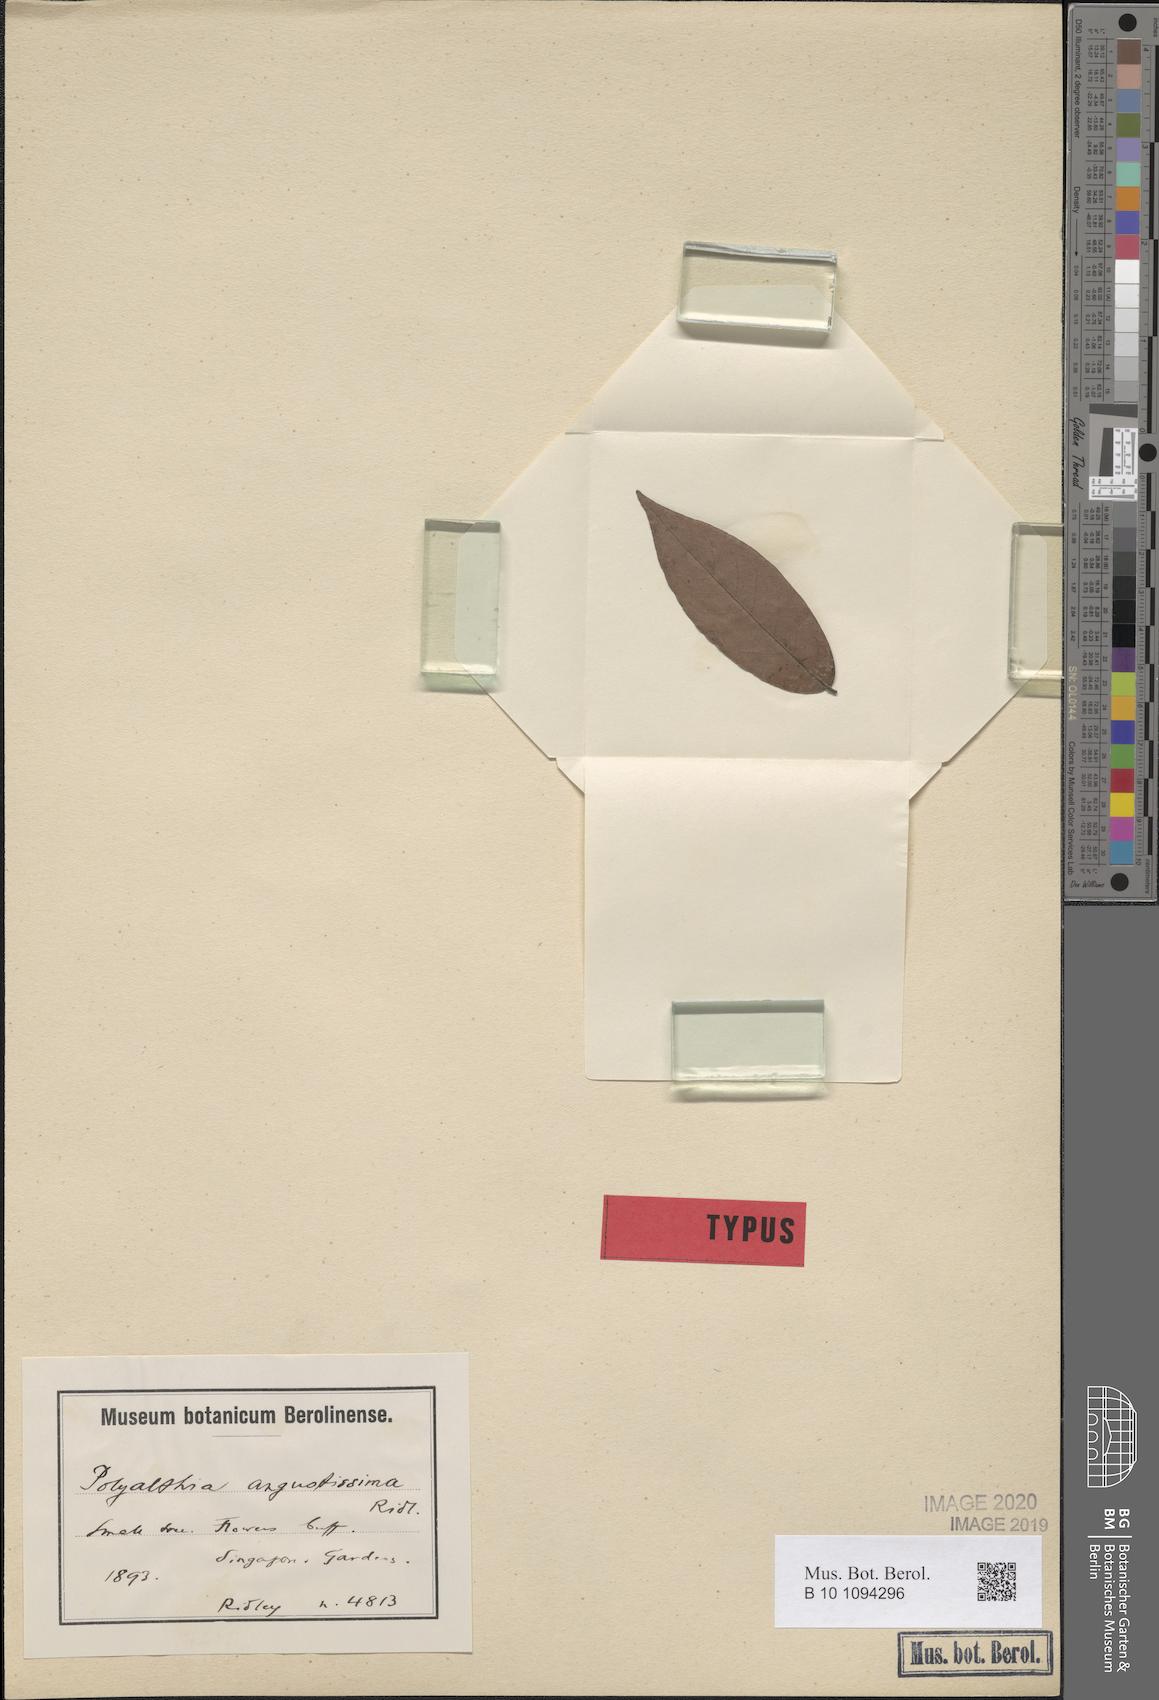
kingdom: Plantae
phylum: Tracheophyta
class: Magnoliopsida
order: Magnoliales
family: Annonaceae
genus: Polyalthia
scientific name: Polyalthia angustissima
